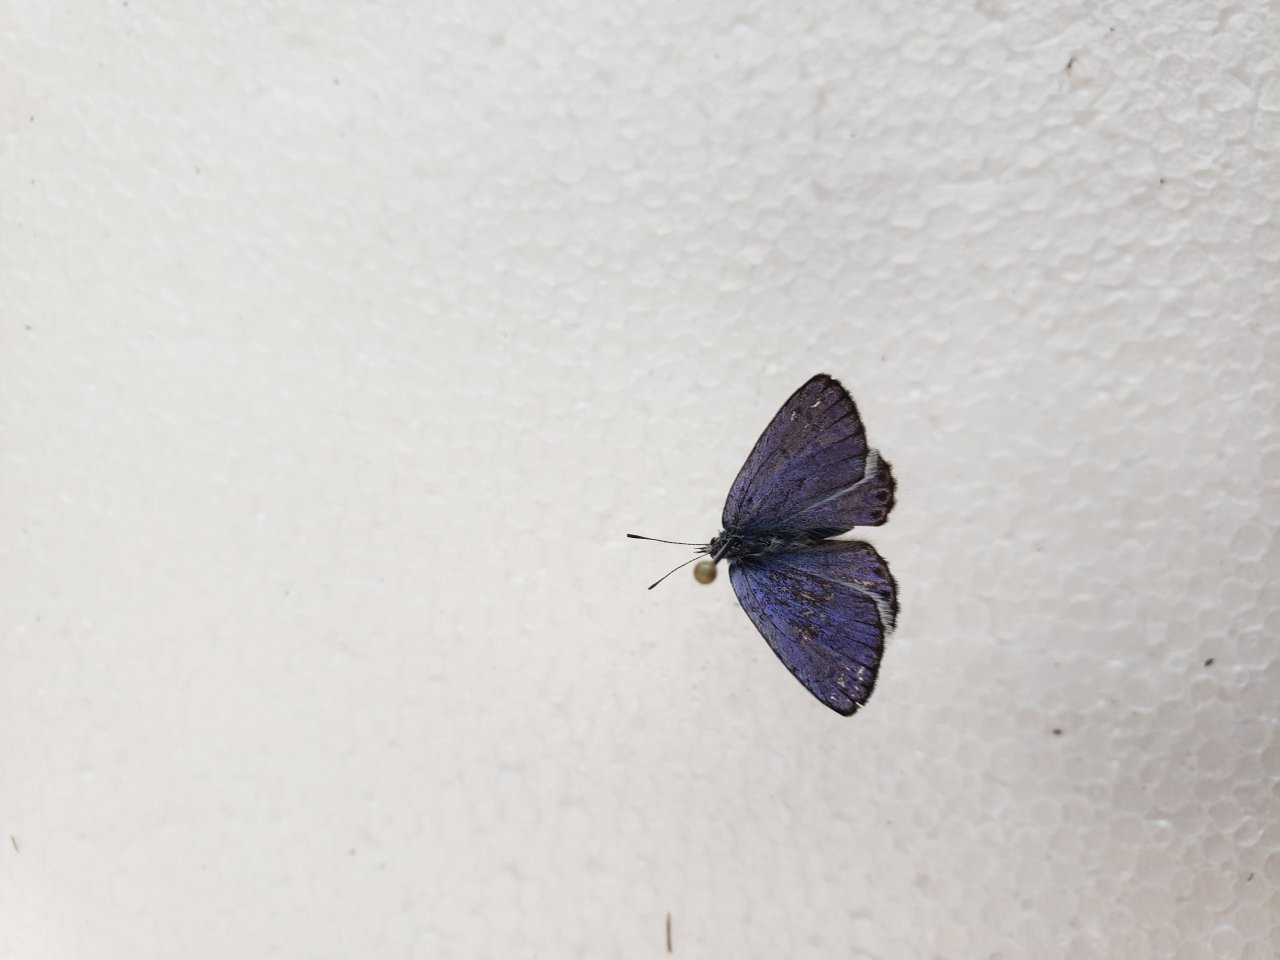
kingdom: Animalia
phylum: Arthropoda
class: Insecta
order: Lepidoptera
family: Lycaenidae
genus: Lycaeides
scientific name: Lycaeides idas
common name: Northern Blue
